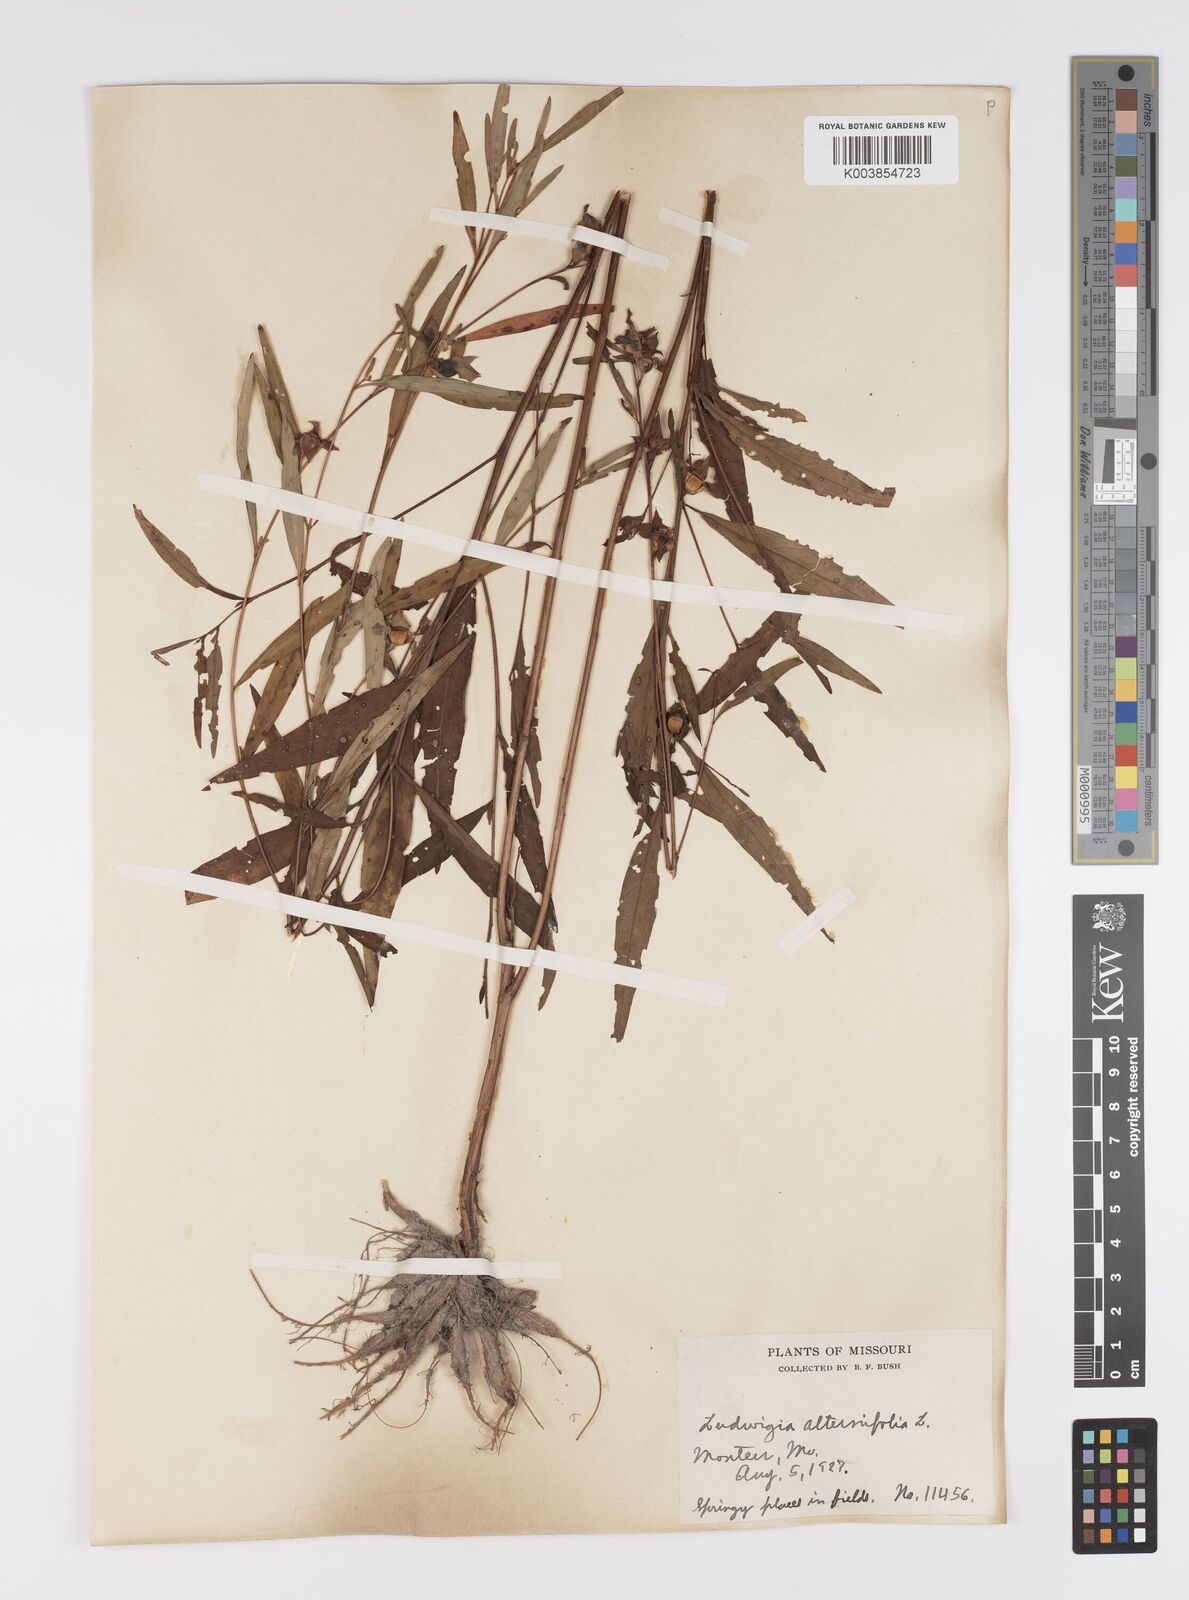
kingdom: Plantae
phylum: Tracheophyta
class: Magnoliopsida
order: Myrtales
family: Onagraceae
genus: Ludwigia
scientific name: Ludwigia alternifolia
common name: Rattlebox
